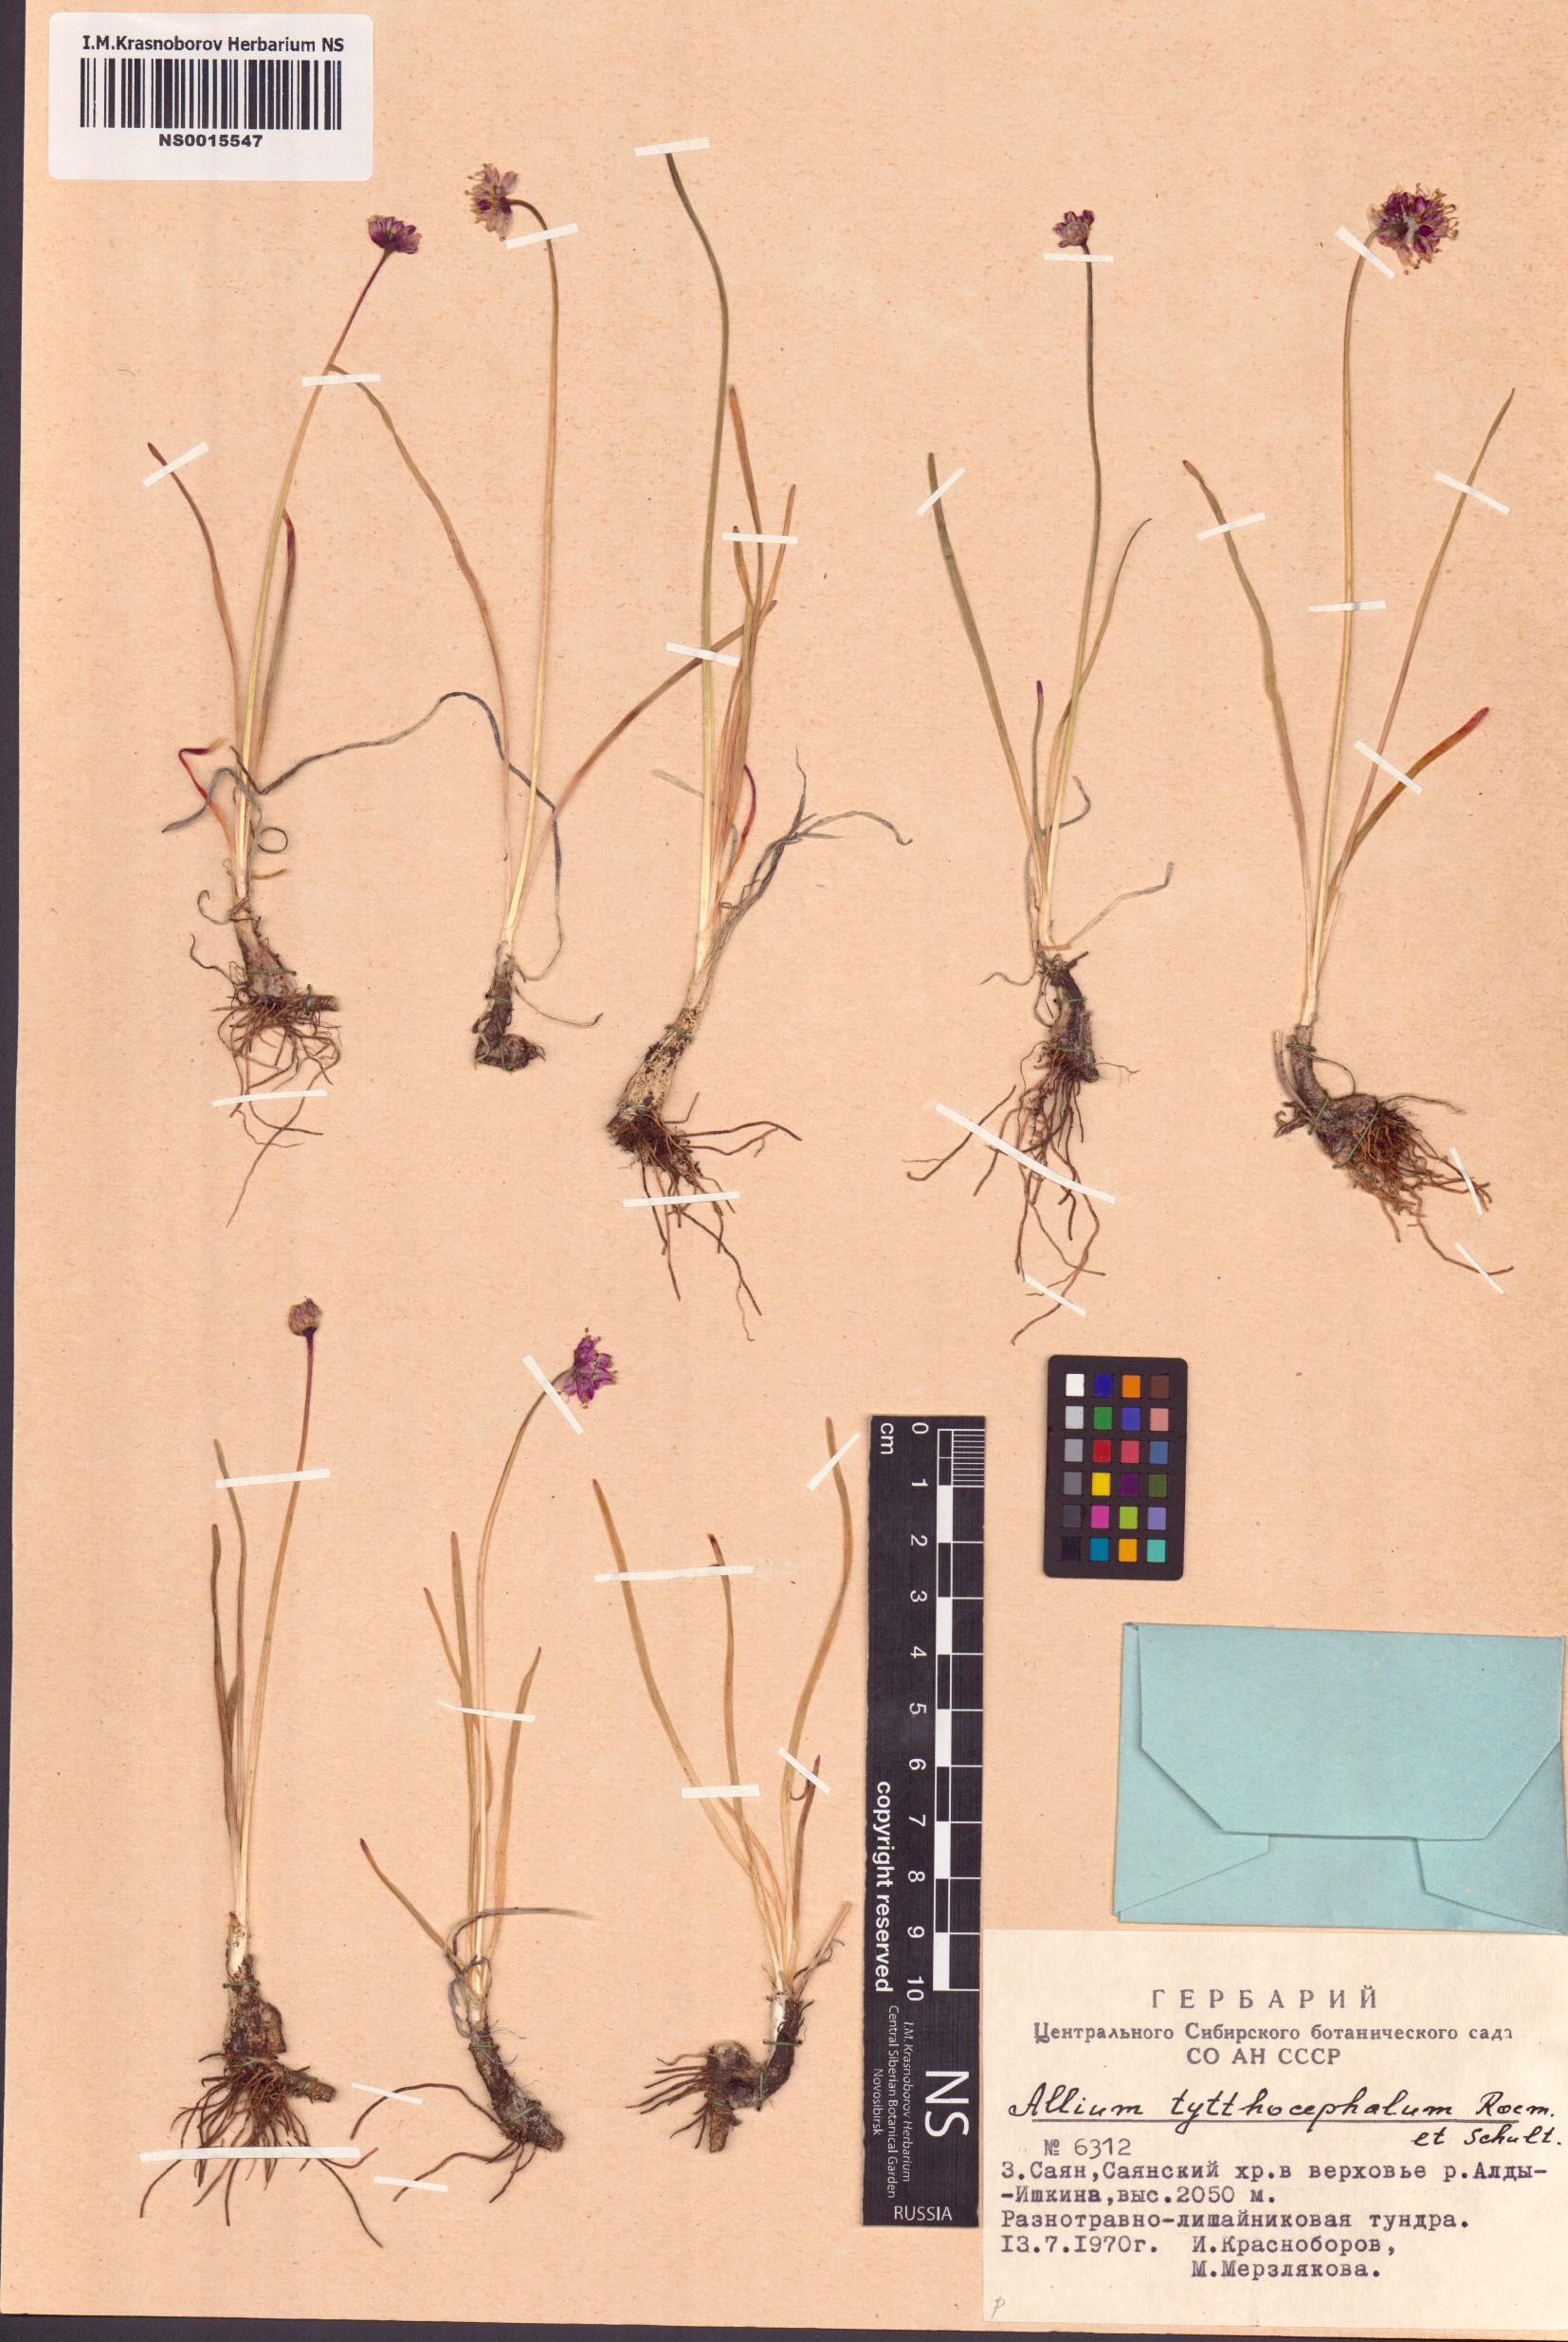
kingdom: Plantae
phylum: Tracheophyta
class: Liliopsida
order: Asparagales
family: Amaryllidaceae
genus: Allium
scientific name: Allium tytthocephalum
